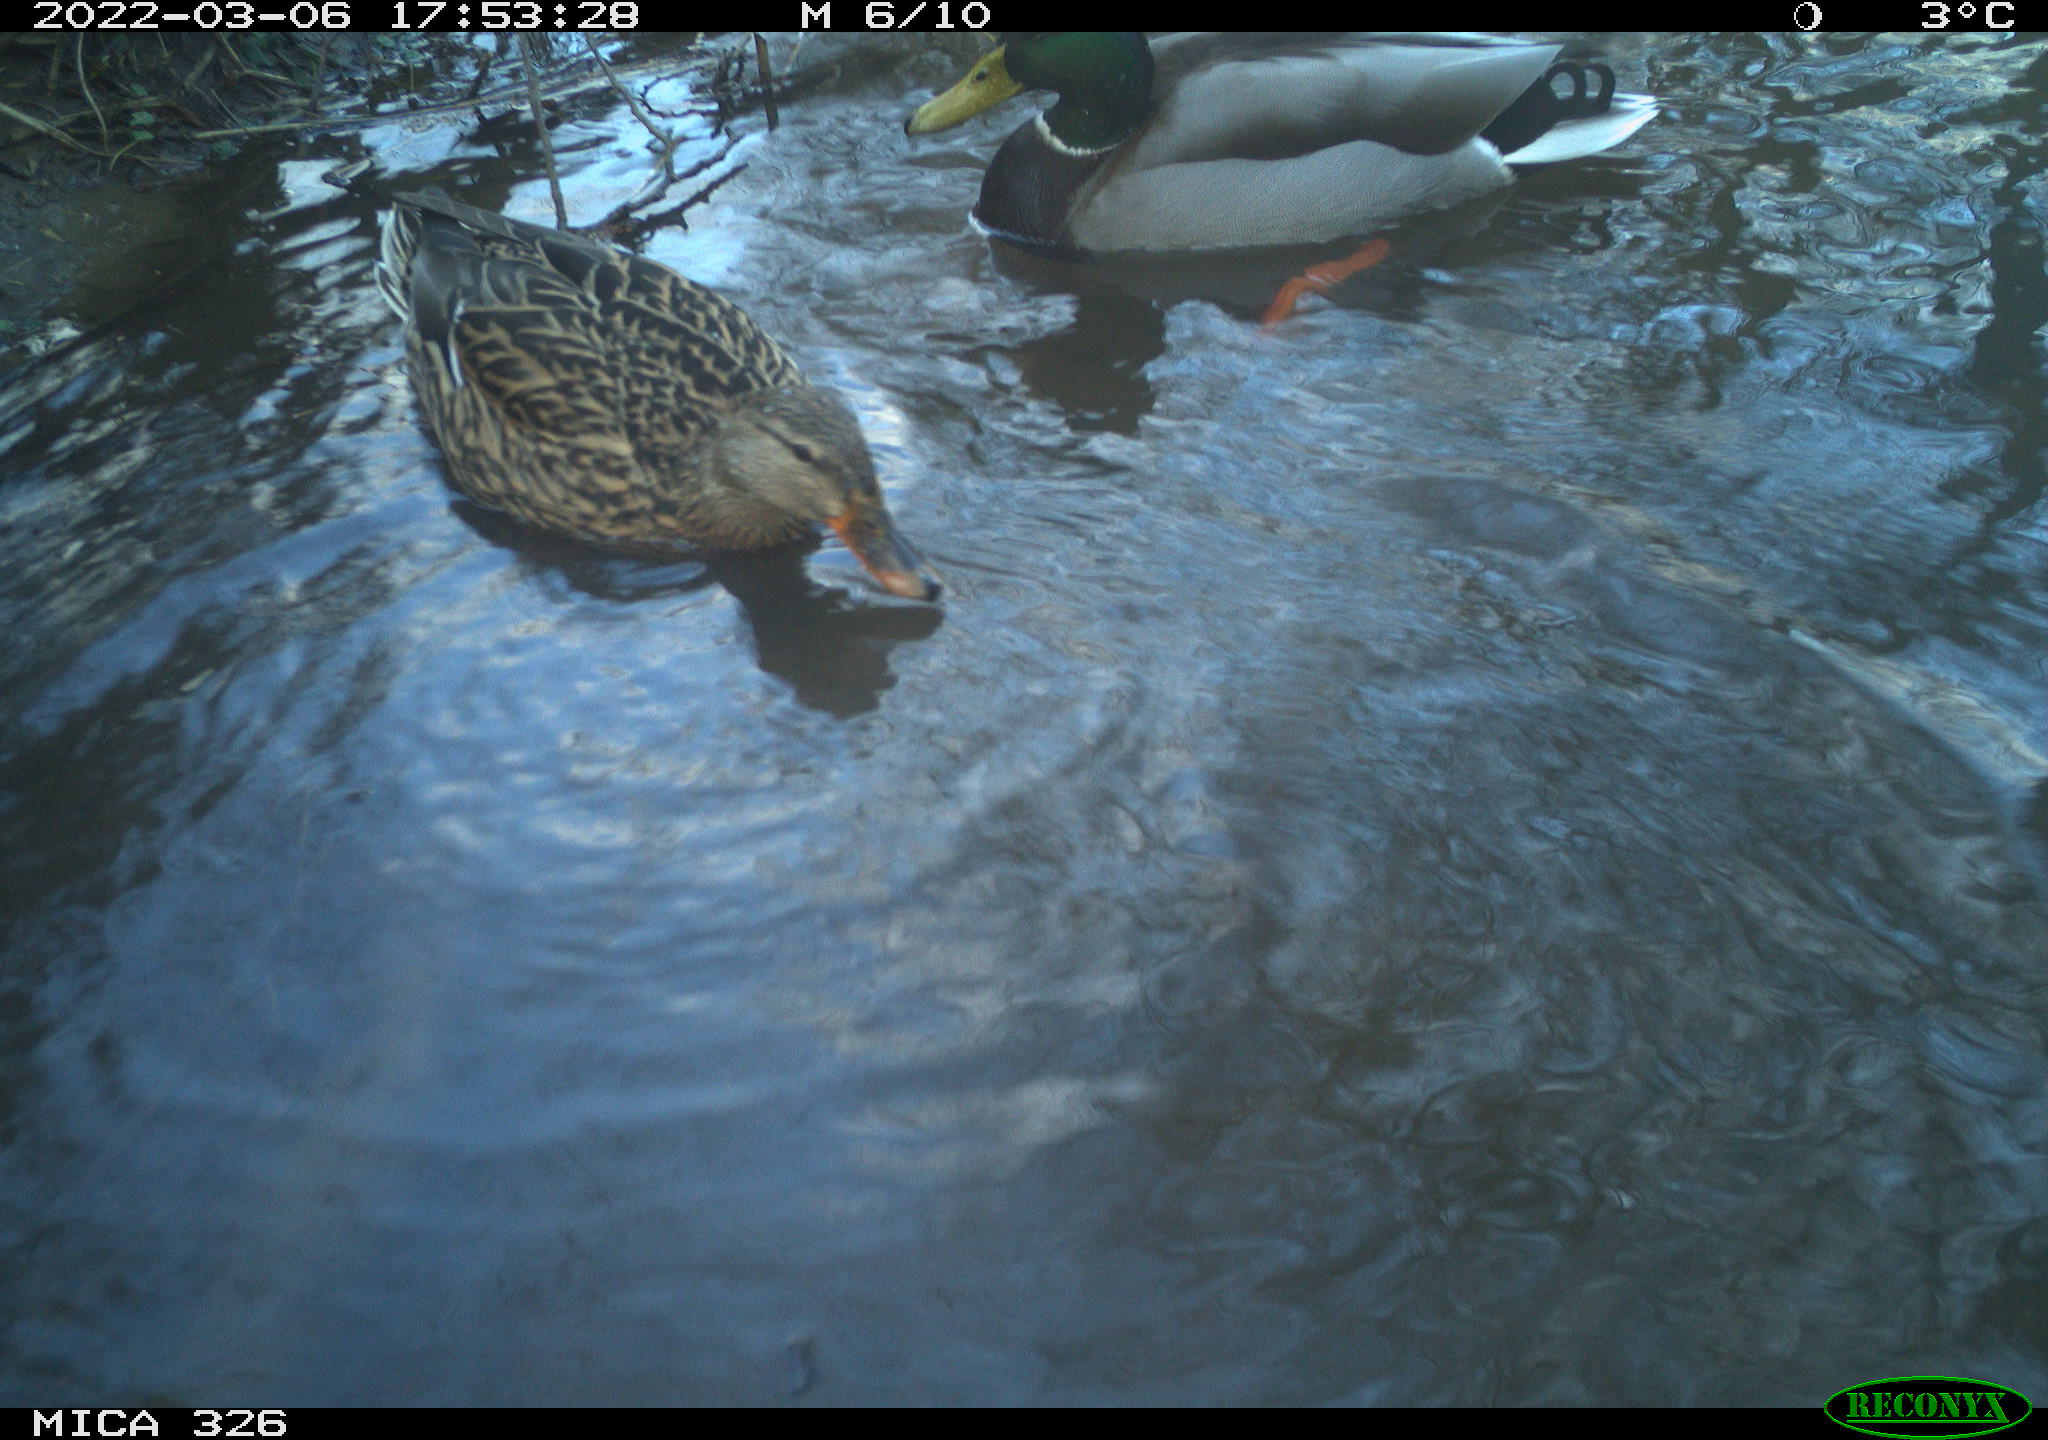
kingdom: Animalia
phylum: Chordata
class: Aves
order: Anseriformes
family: Anatidae
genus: Anas
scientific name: Anas platyrhynchos
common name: Mallard
